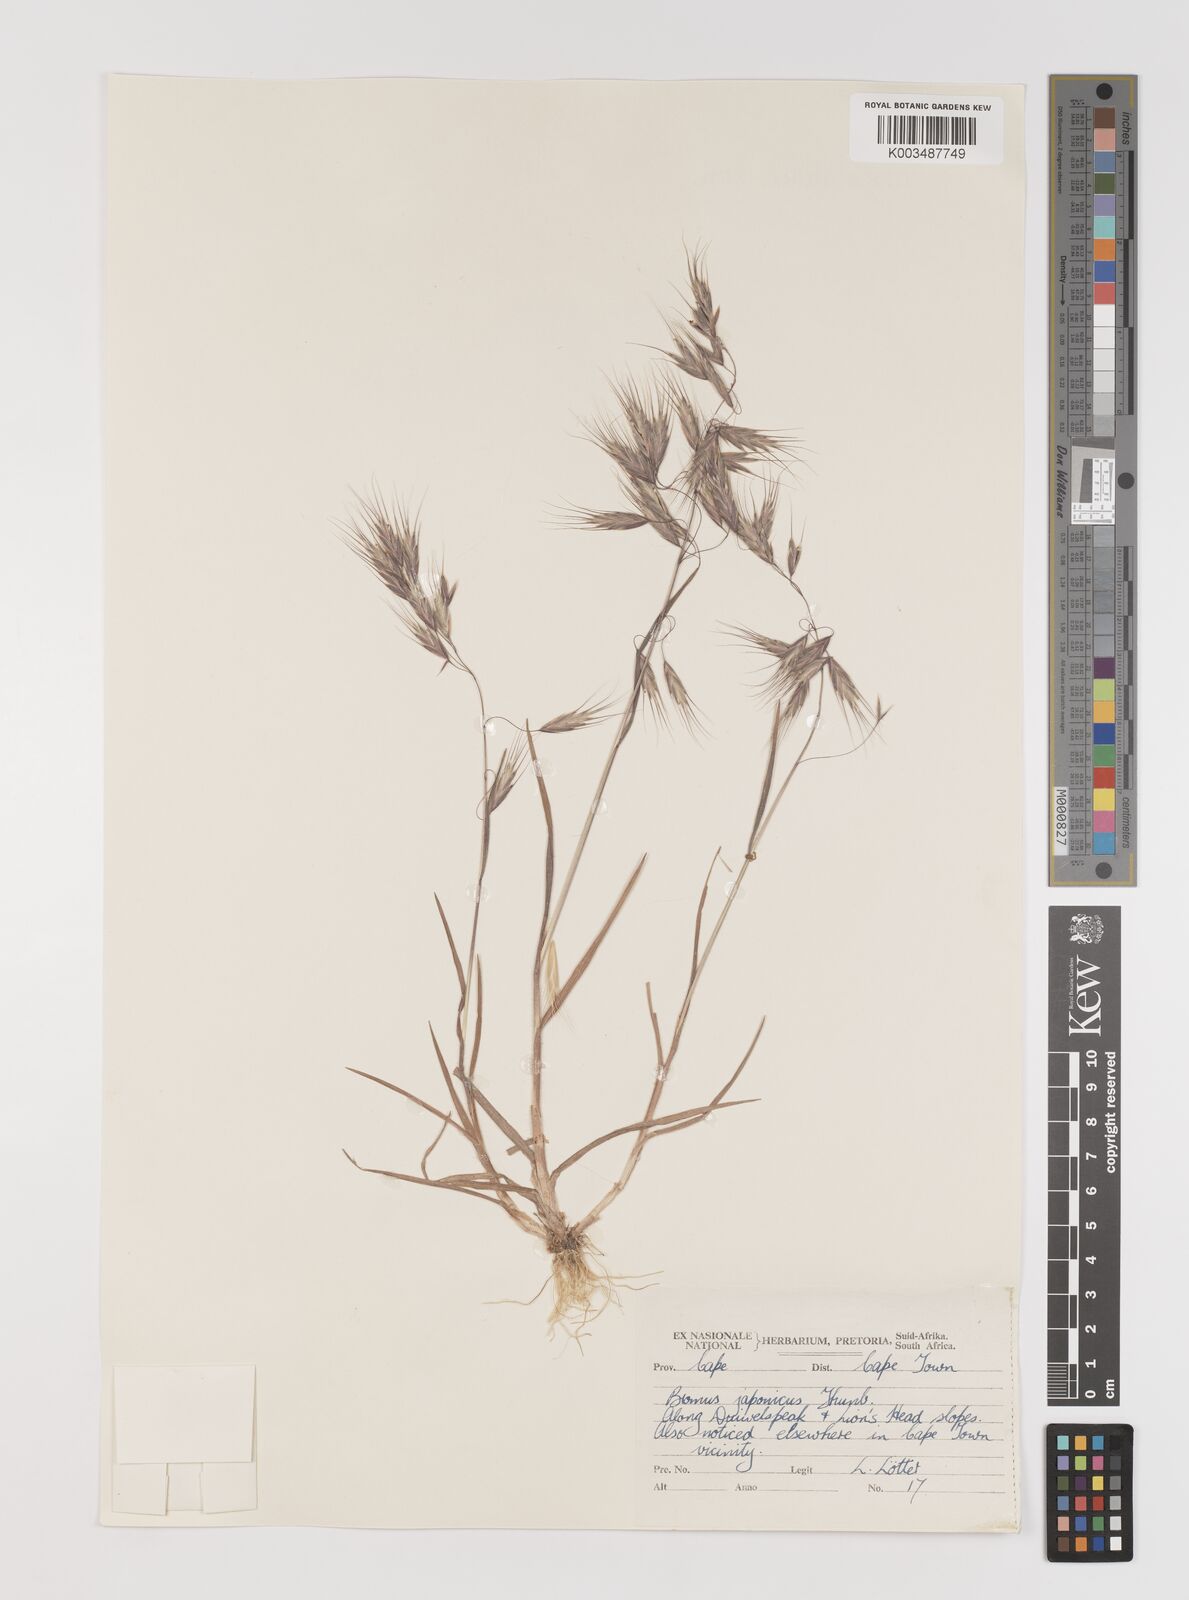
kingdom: Plantae
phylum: Tracheophyta
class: Liliopsida
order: Poales
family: Poaceae
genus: Bromus
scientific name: Bromus pectinatus
